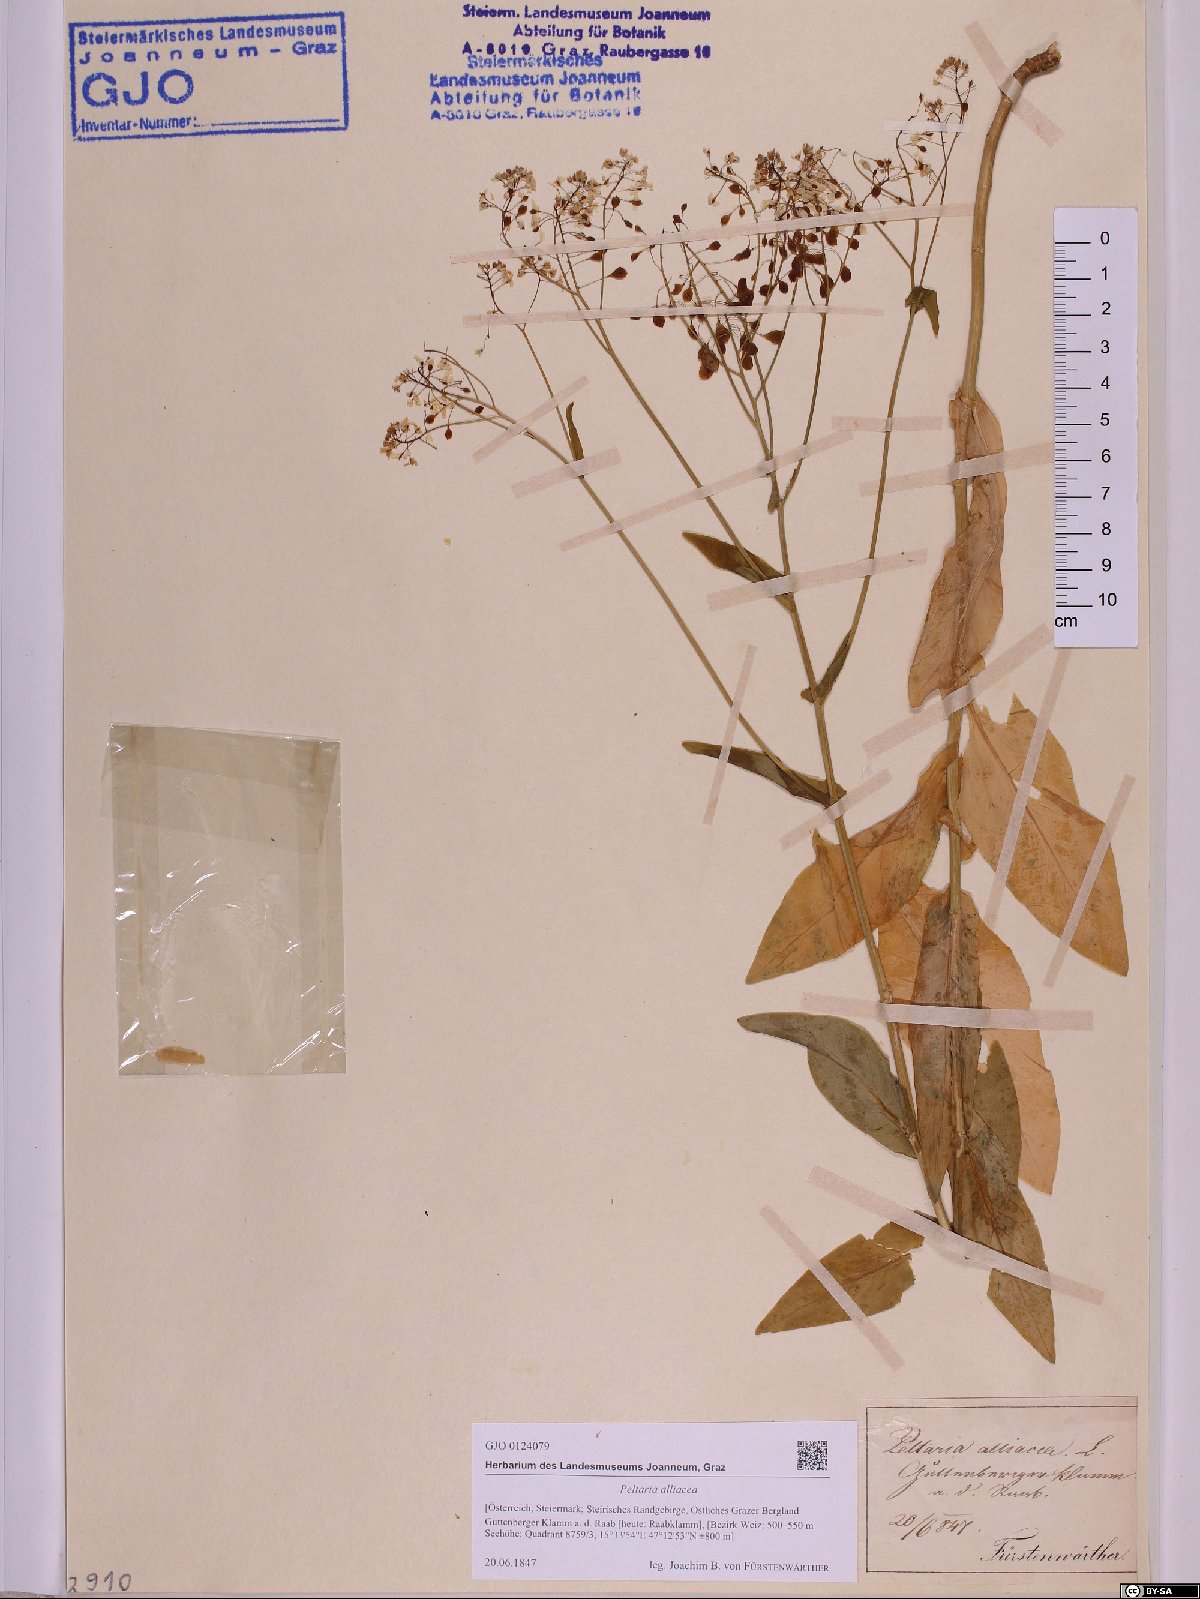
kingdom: Plantae
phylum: Tracheophyta
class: Magnoliopsida
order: Brassicales
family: Brassicaceae
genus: Peltaria
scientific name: Peltaria alliacea
